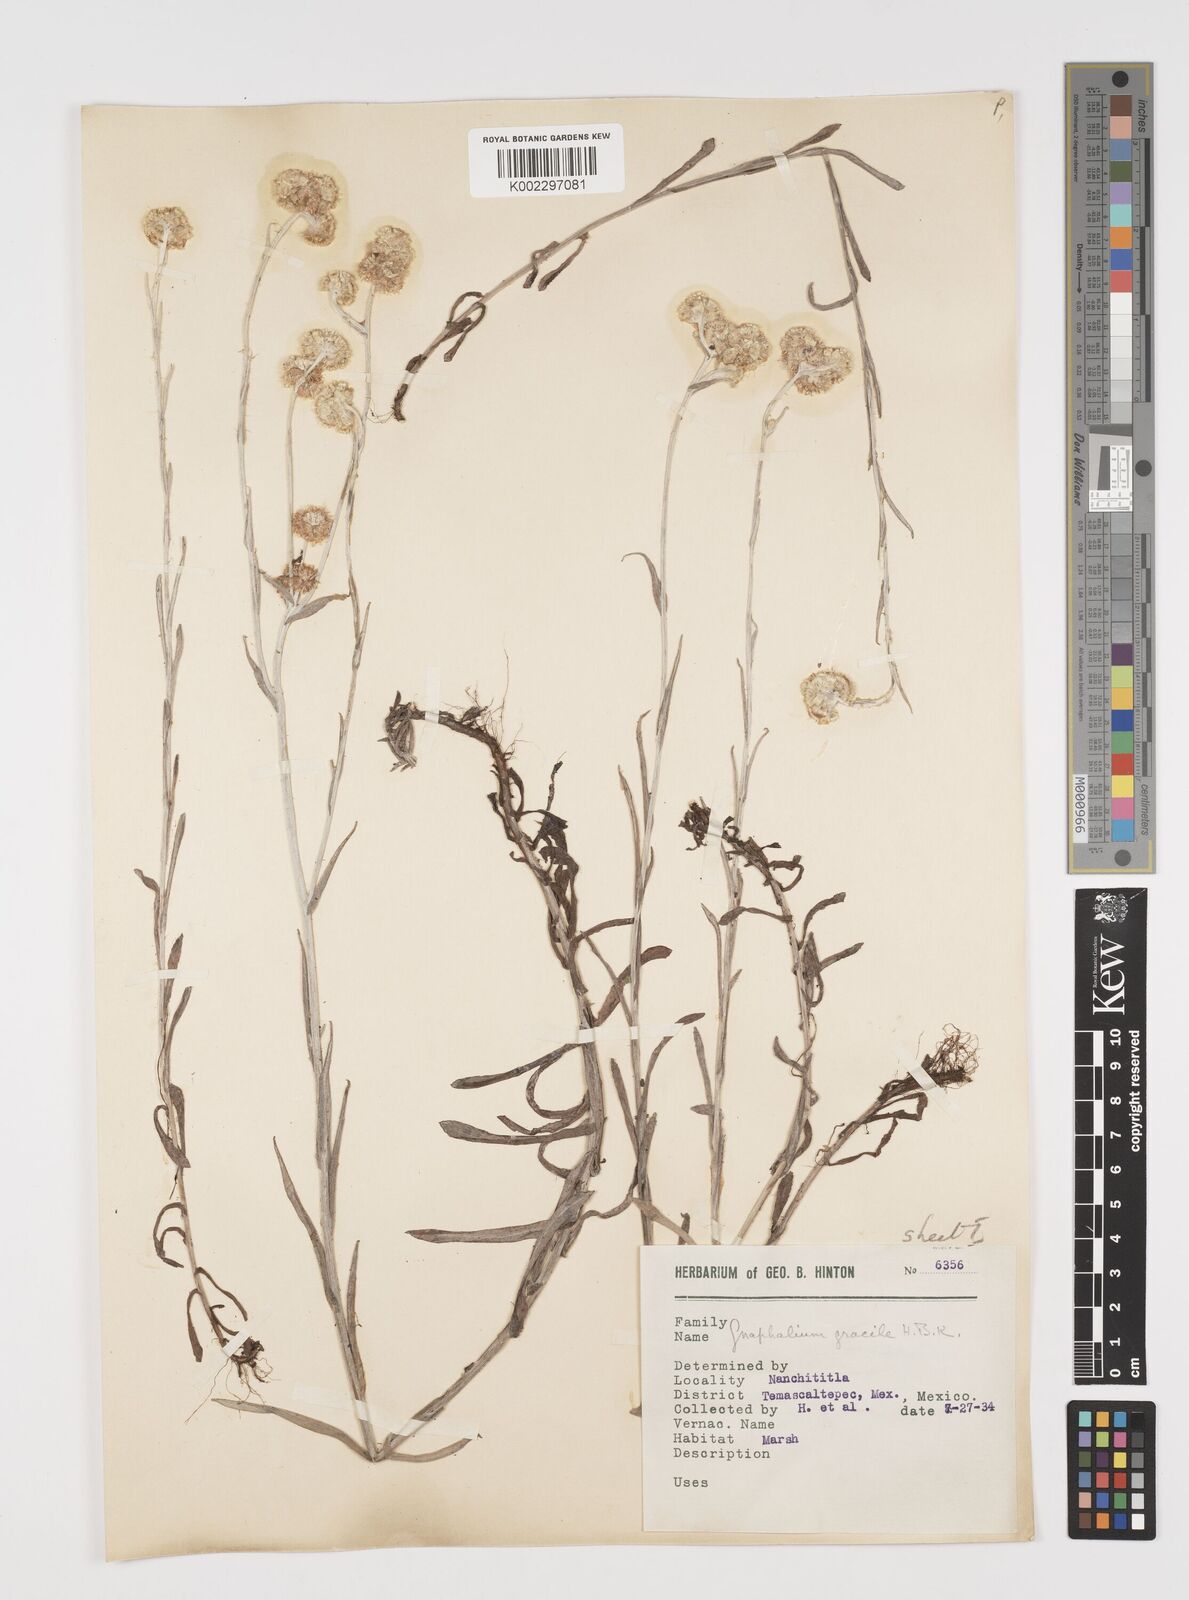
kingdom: Plantae
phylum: Tracheophyta
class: Magnoliopsida
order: Asterales
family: Asteraceae
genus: Pseudognaphalium
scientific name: Pseudognaphalium
